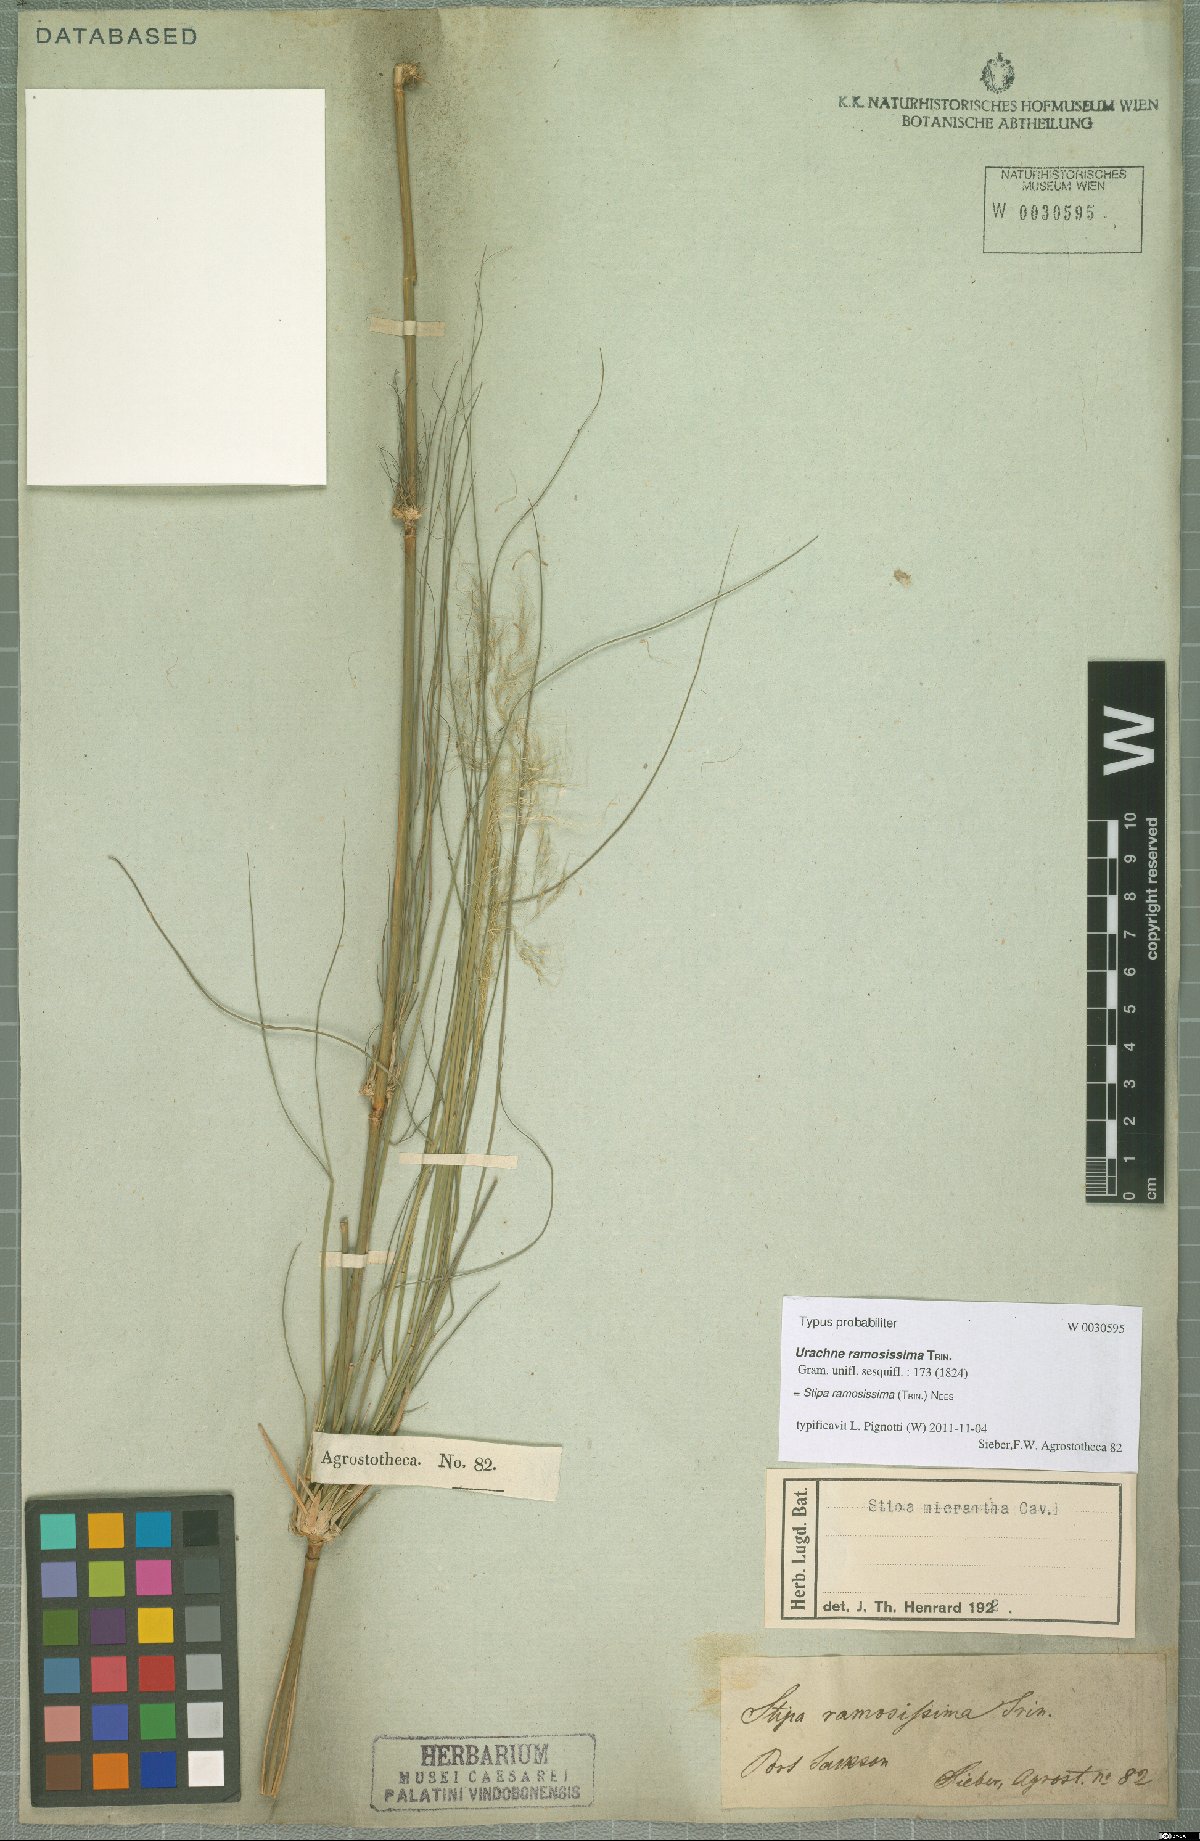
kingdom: Plantae
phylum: Tracheophyta
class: Liliopsida
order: Poales
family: Poaceae
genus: Austrostipa
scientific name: Austrostipa ramosissima
